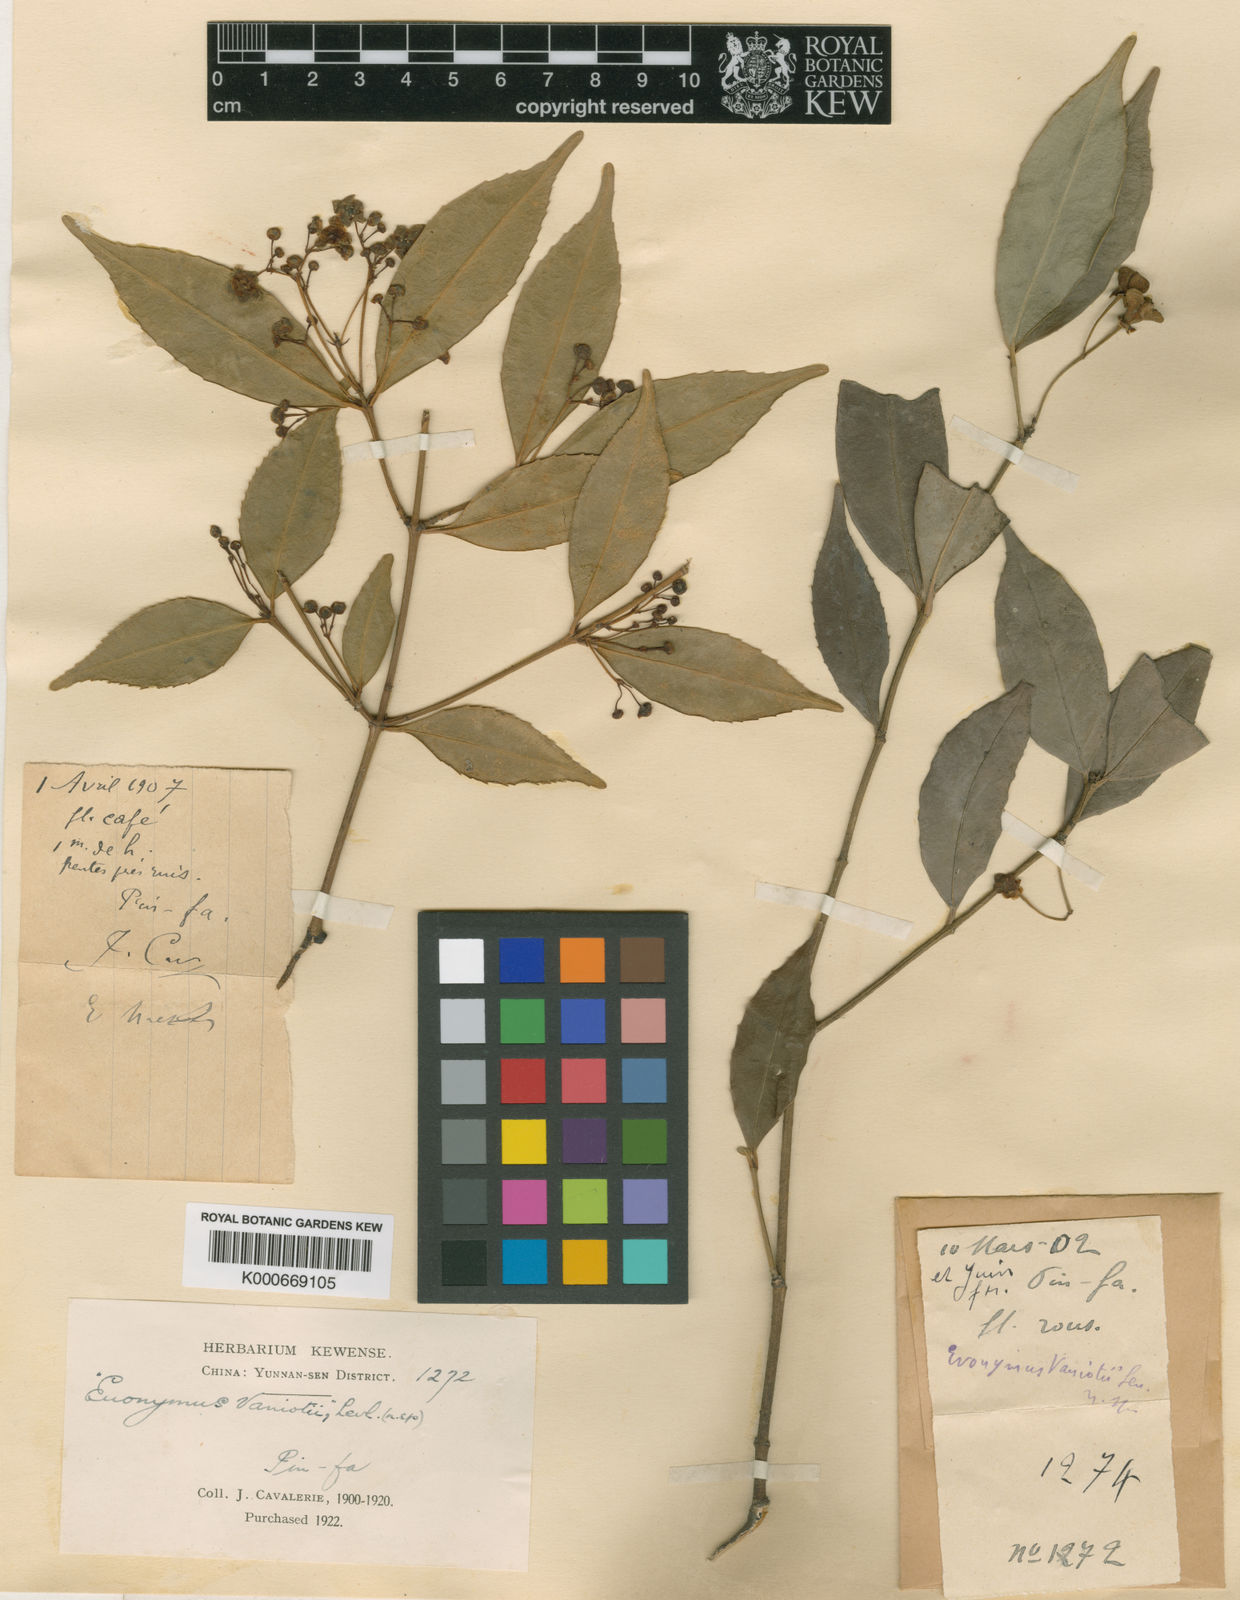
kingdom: Plantae
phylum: Tracheophyta
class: Magnoliopsida
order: Celastrales
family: Celastraceae
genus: Euonymus
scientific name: Euonymus laxiflorus
